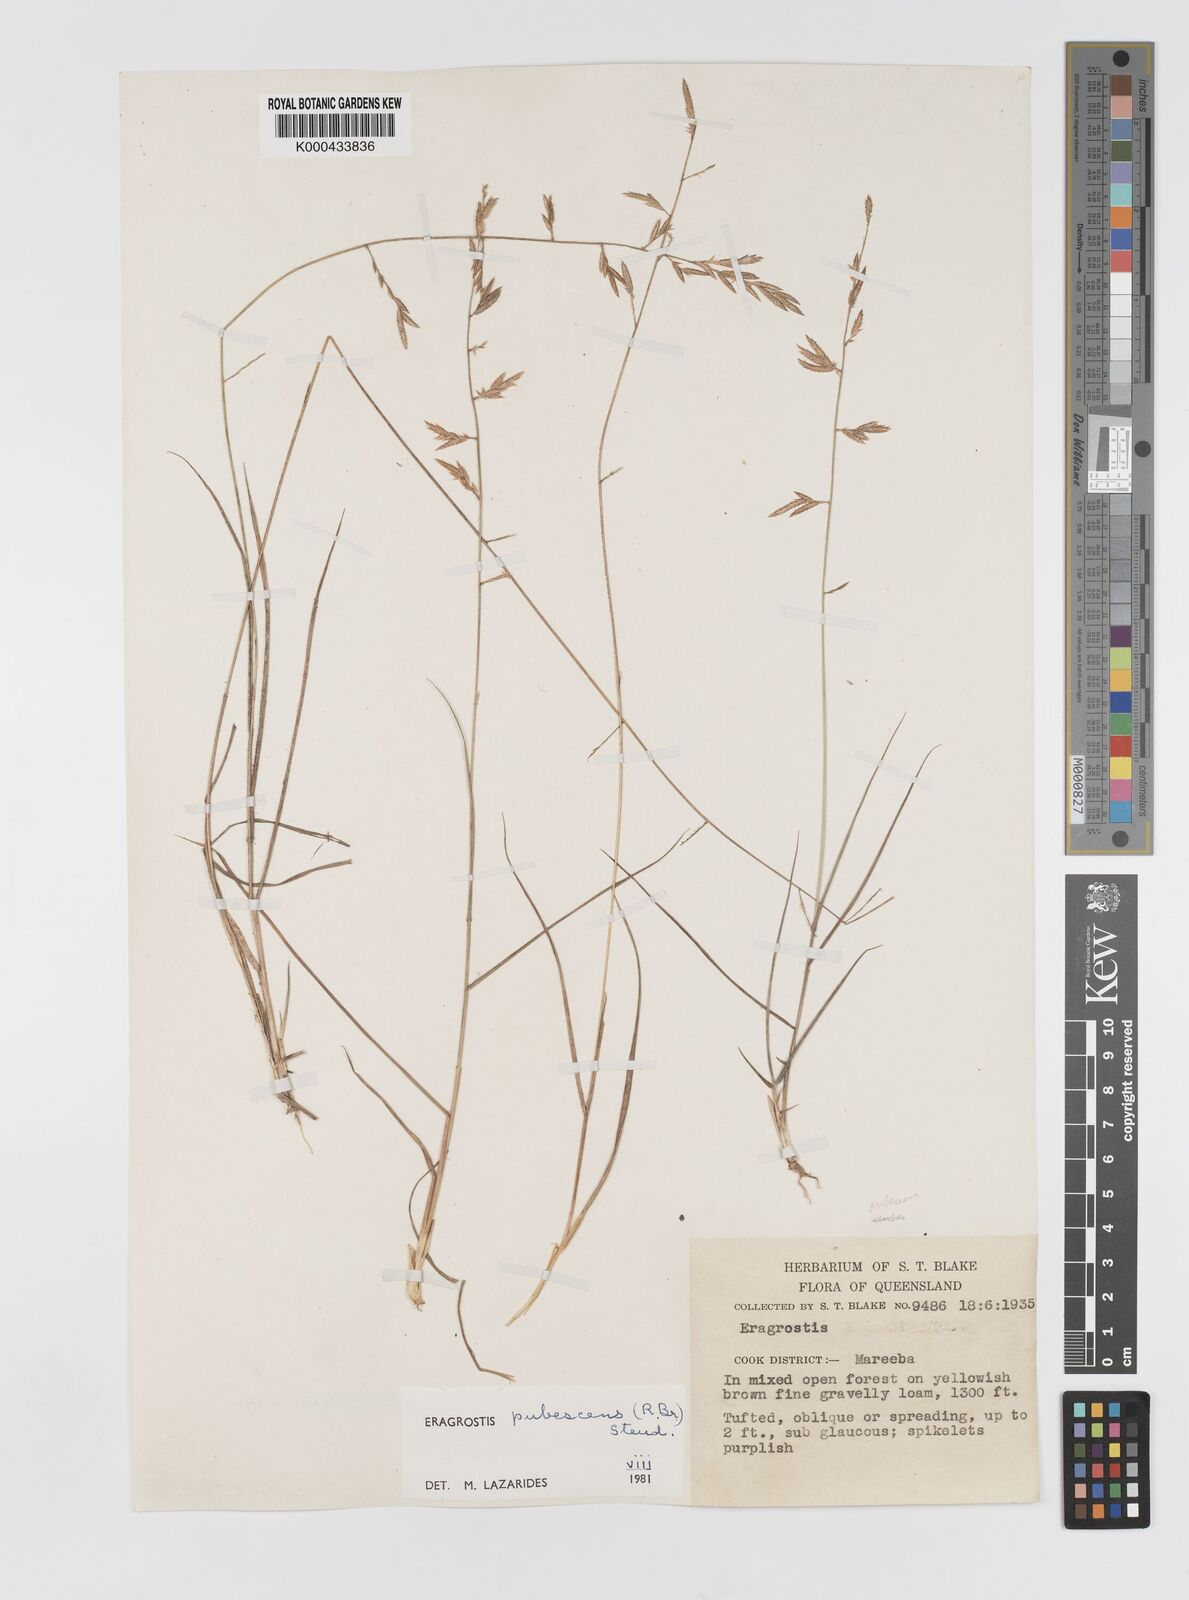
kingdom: Plantae
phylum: Tracheophyta
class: Liliopsida
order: Poales
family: Poaceae
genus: Eragrostis
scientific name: Eragrostis pubescens
